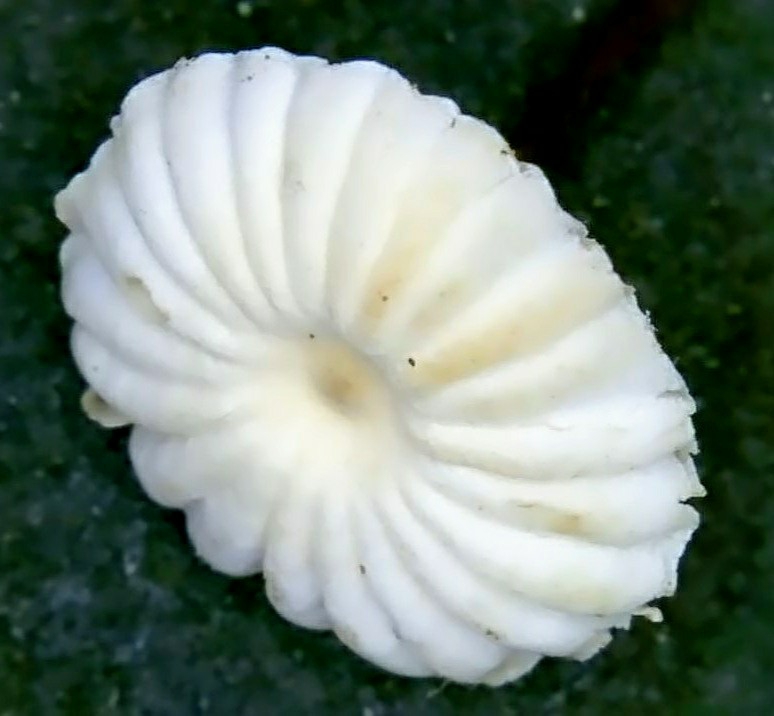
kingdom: Fungi
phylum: Basidiomycota
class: Agaricomycetes
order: Agaricales
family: Marasmiaceae
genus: Marasmius
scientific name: Marasmius rotula
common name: hjul-bruskhat
